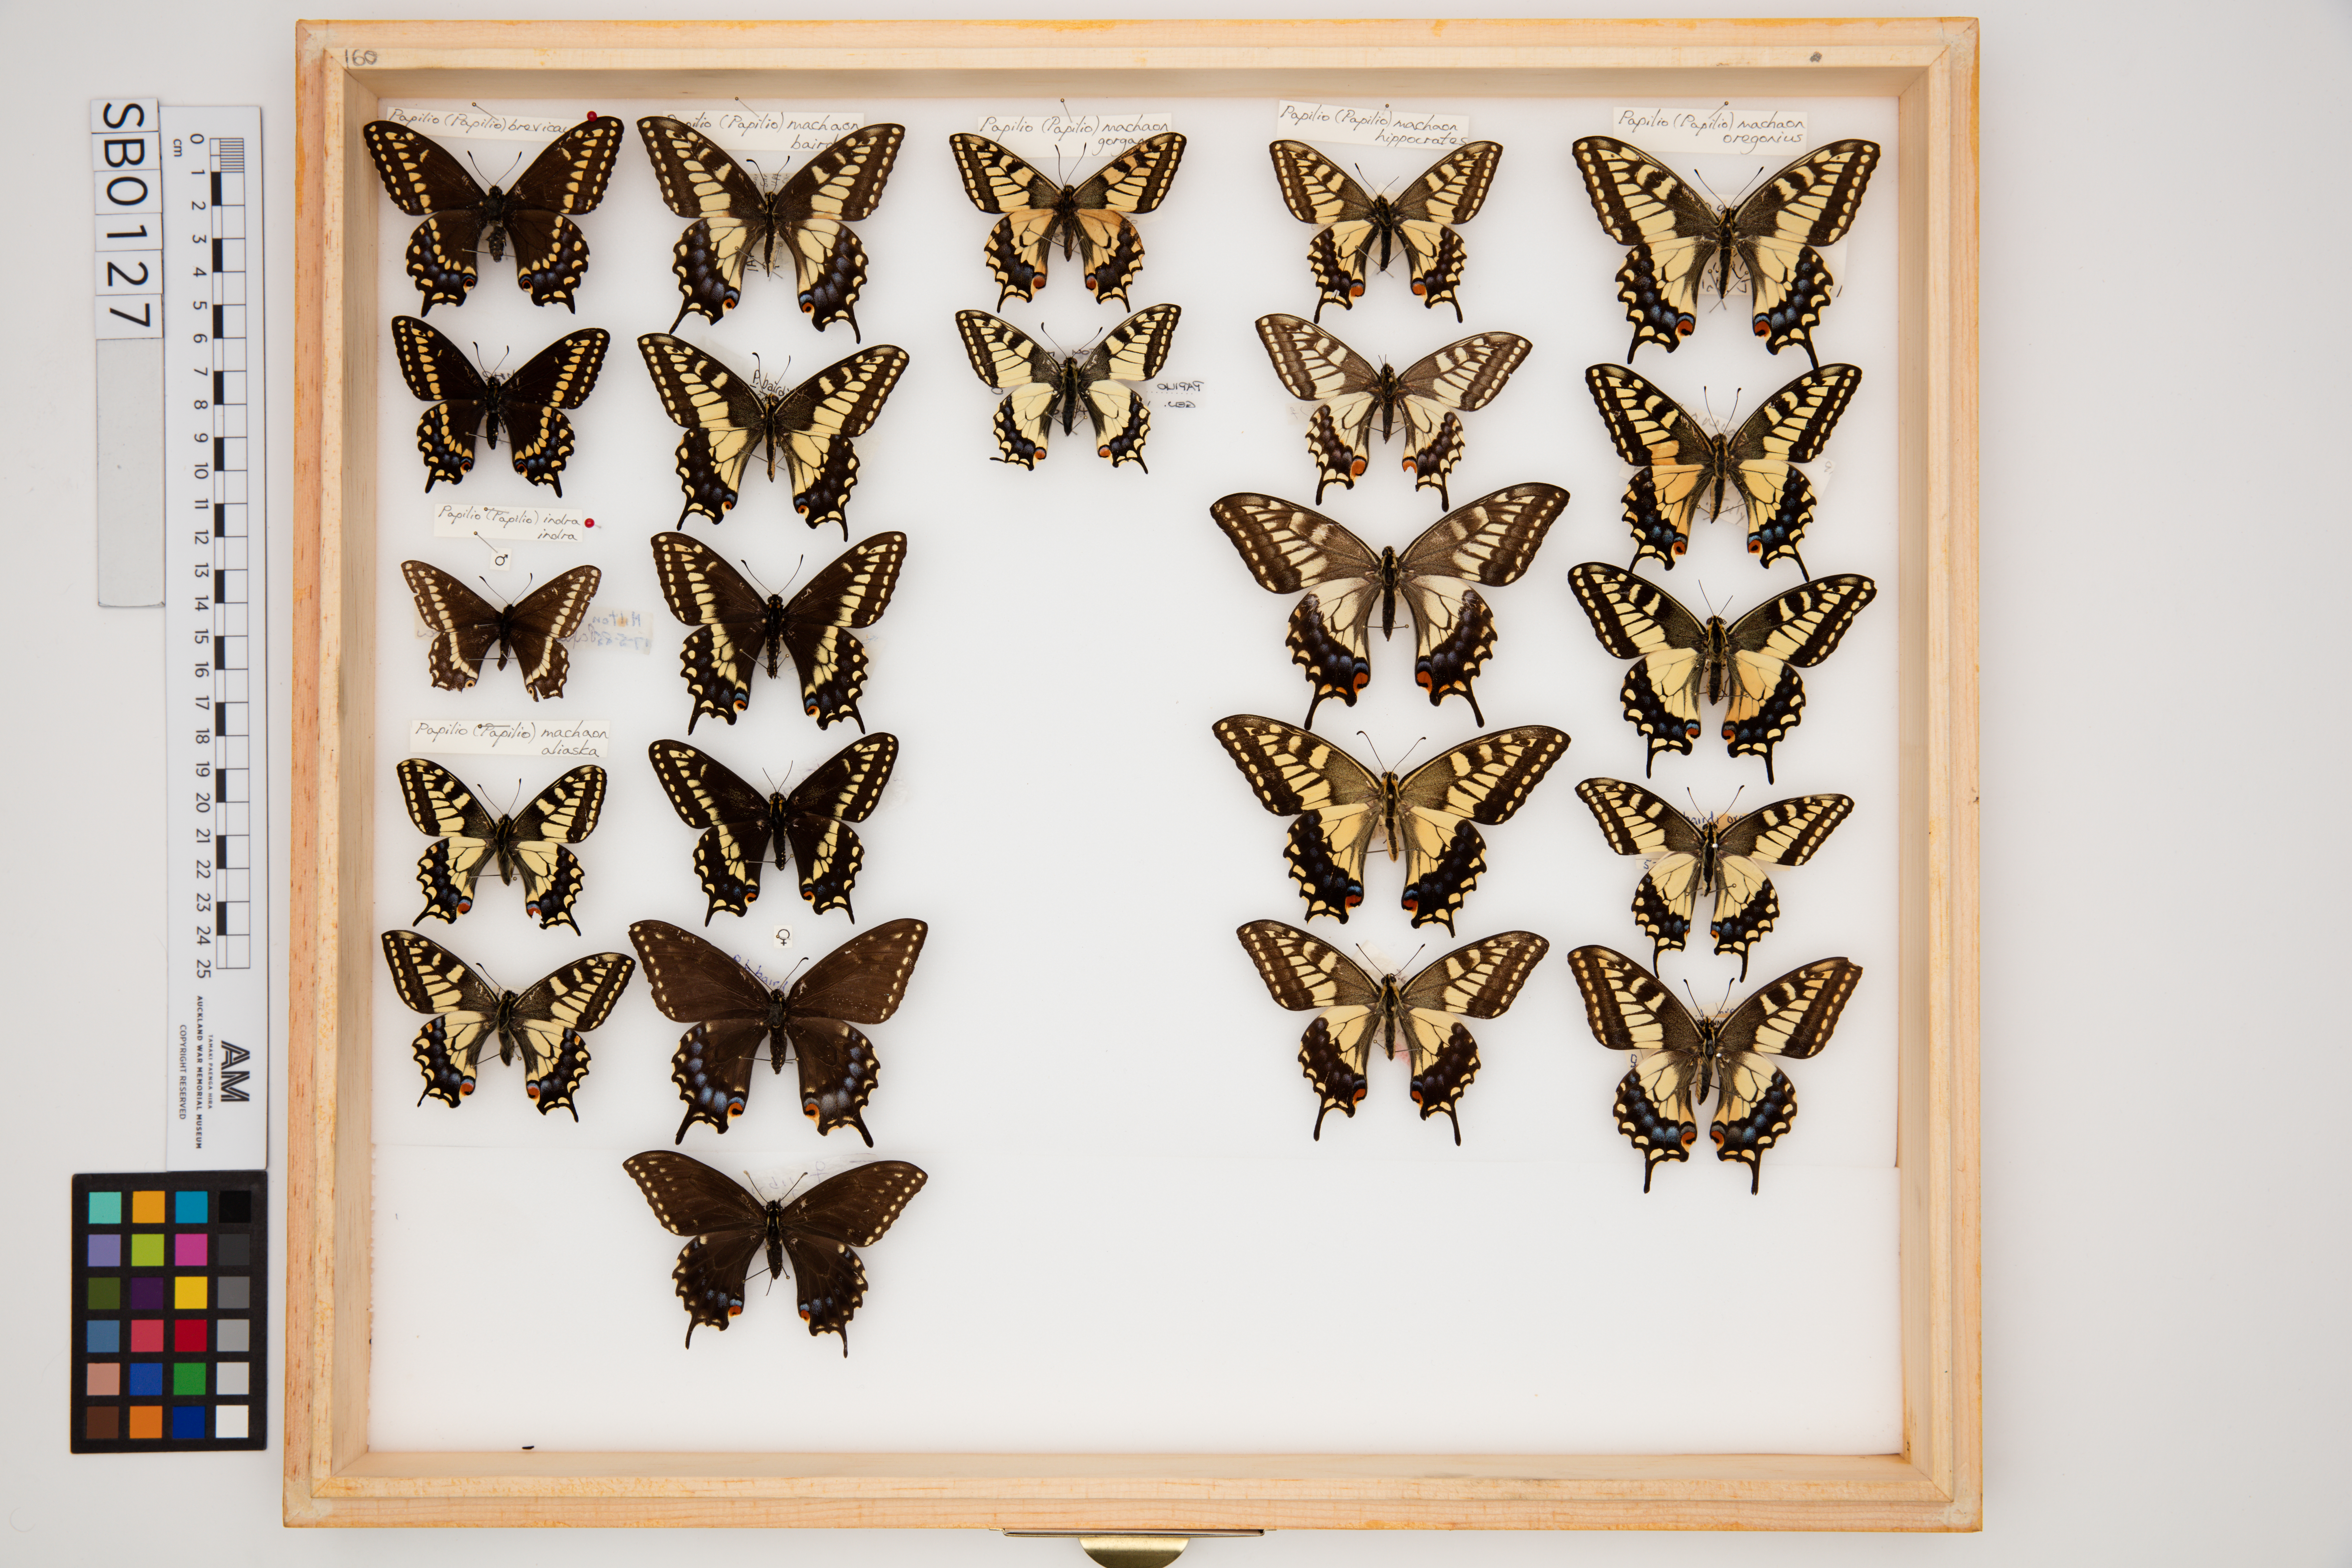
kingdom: Animalia
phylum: Arthropoda
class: Insecta
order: Lepidoptera
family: Papilionidae
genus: Papilio
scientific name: Papilio machaon
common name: Swallowtail
